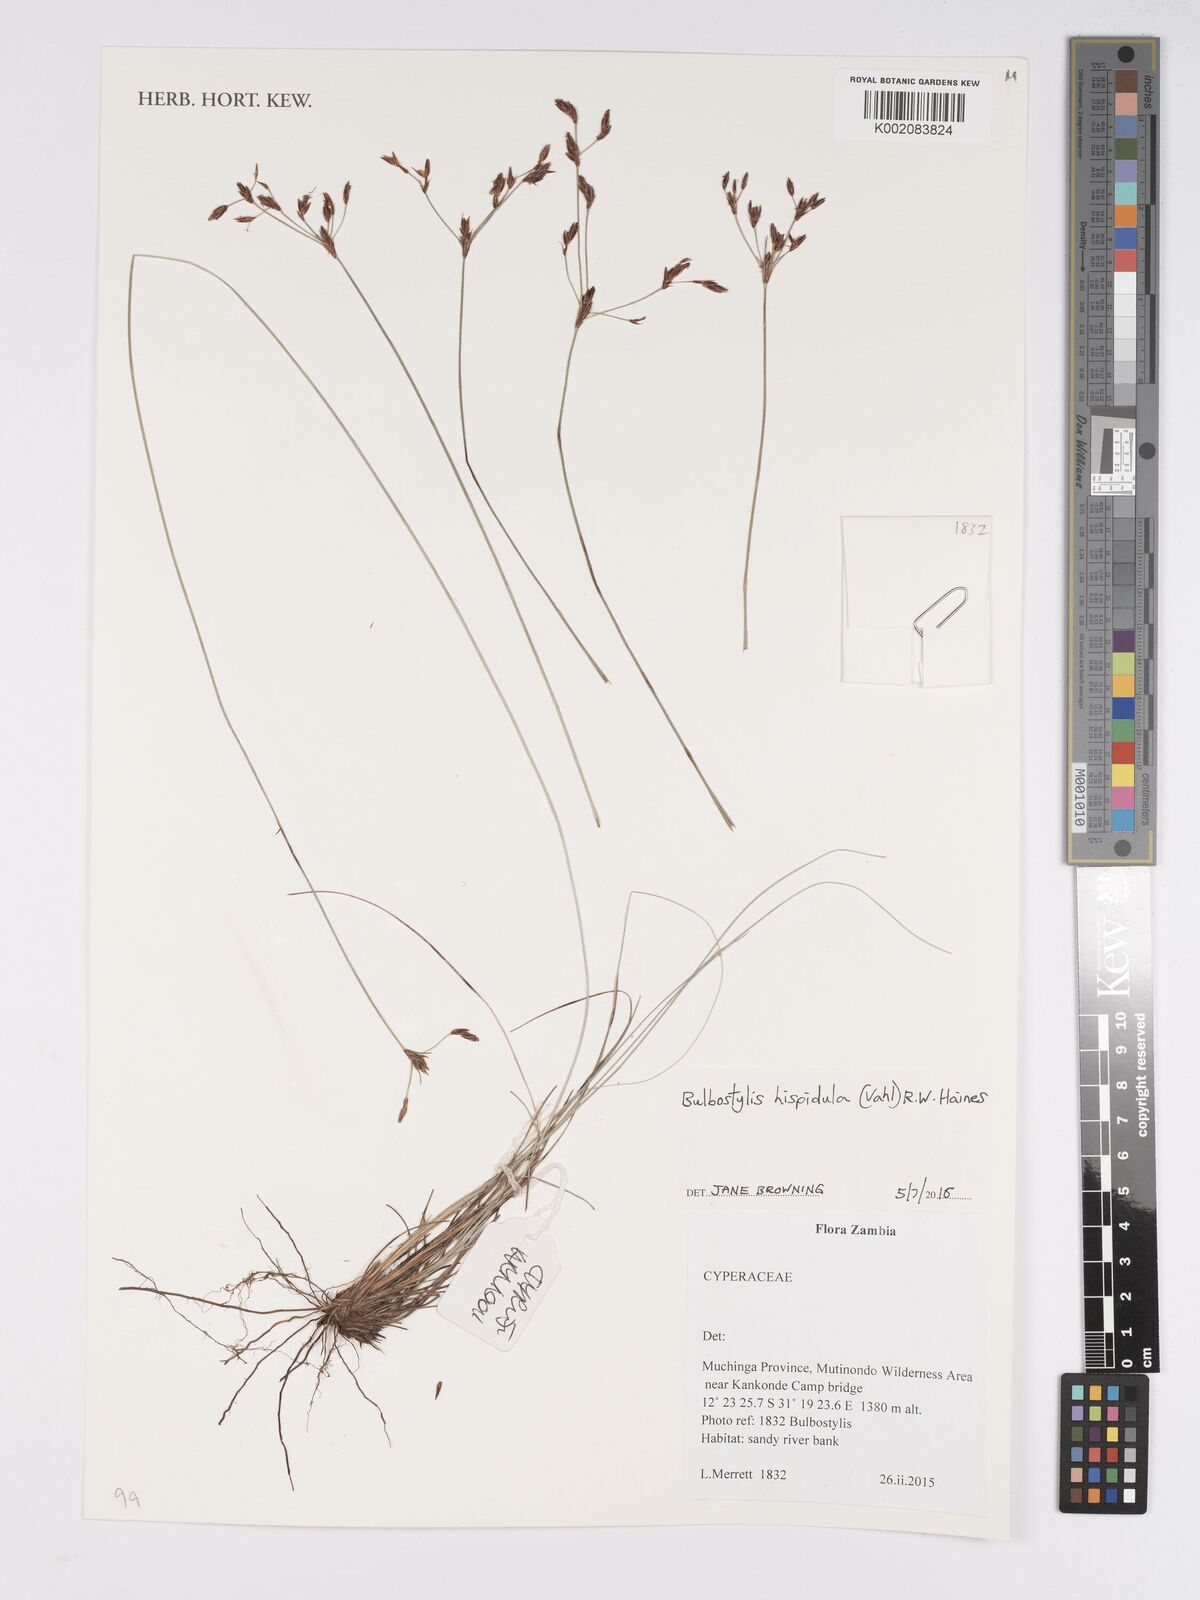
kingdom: Plantae
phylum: Tracheophyta
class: Liliopsida
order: Poales
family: Cyperaceae
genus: Bulbostylis
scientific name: Bulbostylis hispidula
